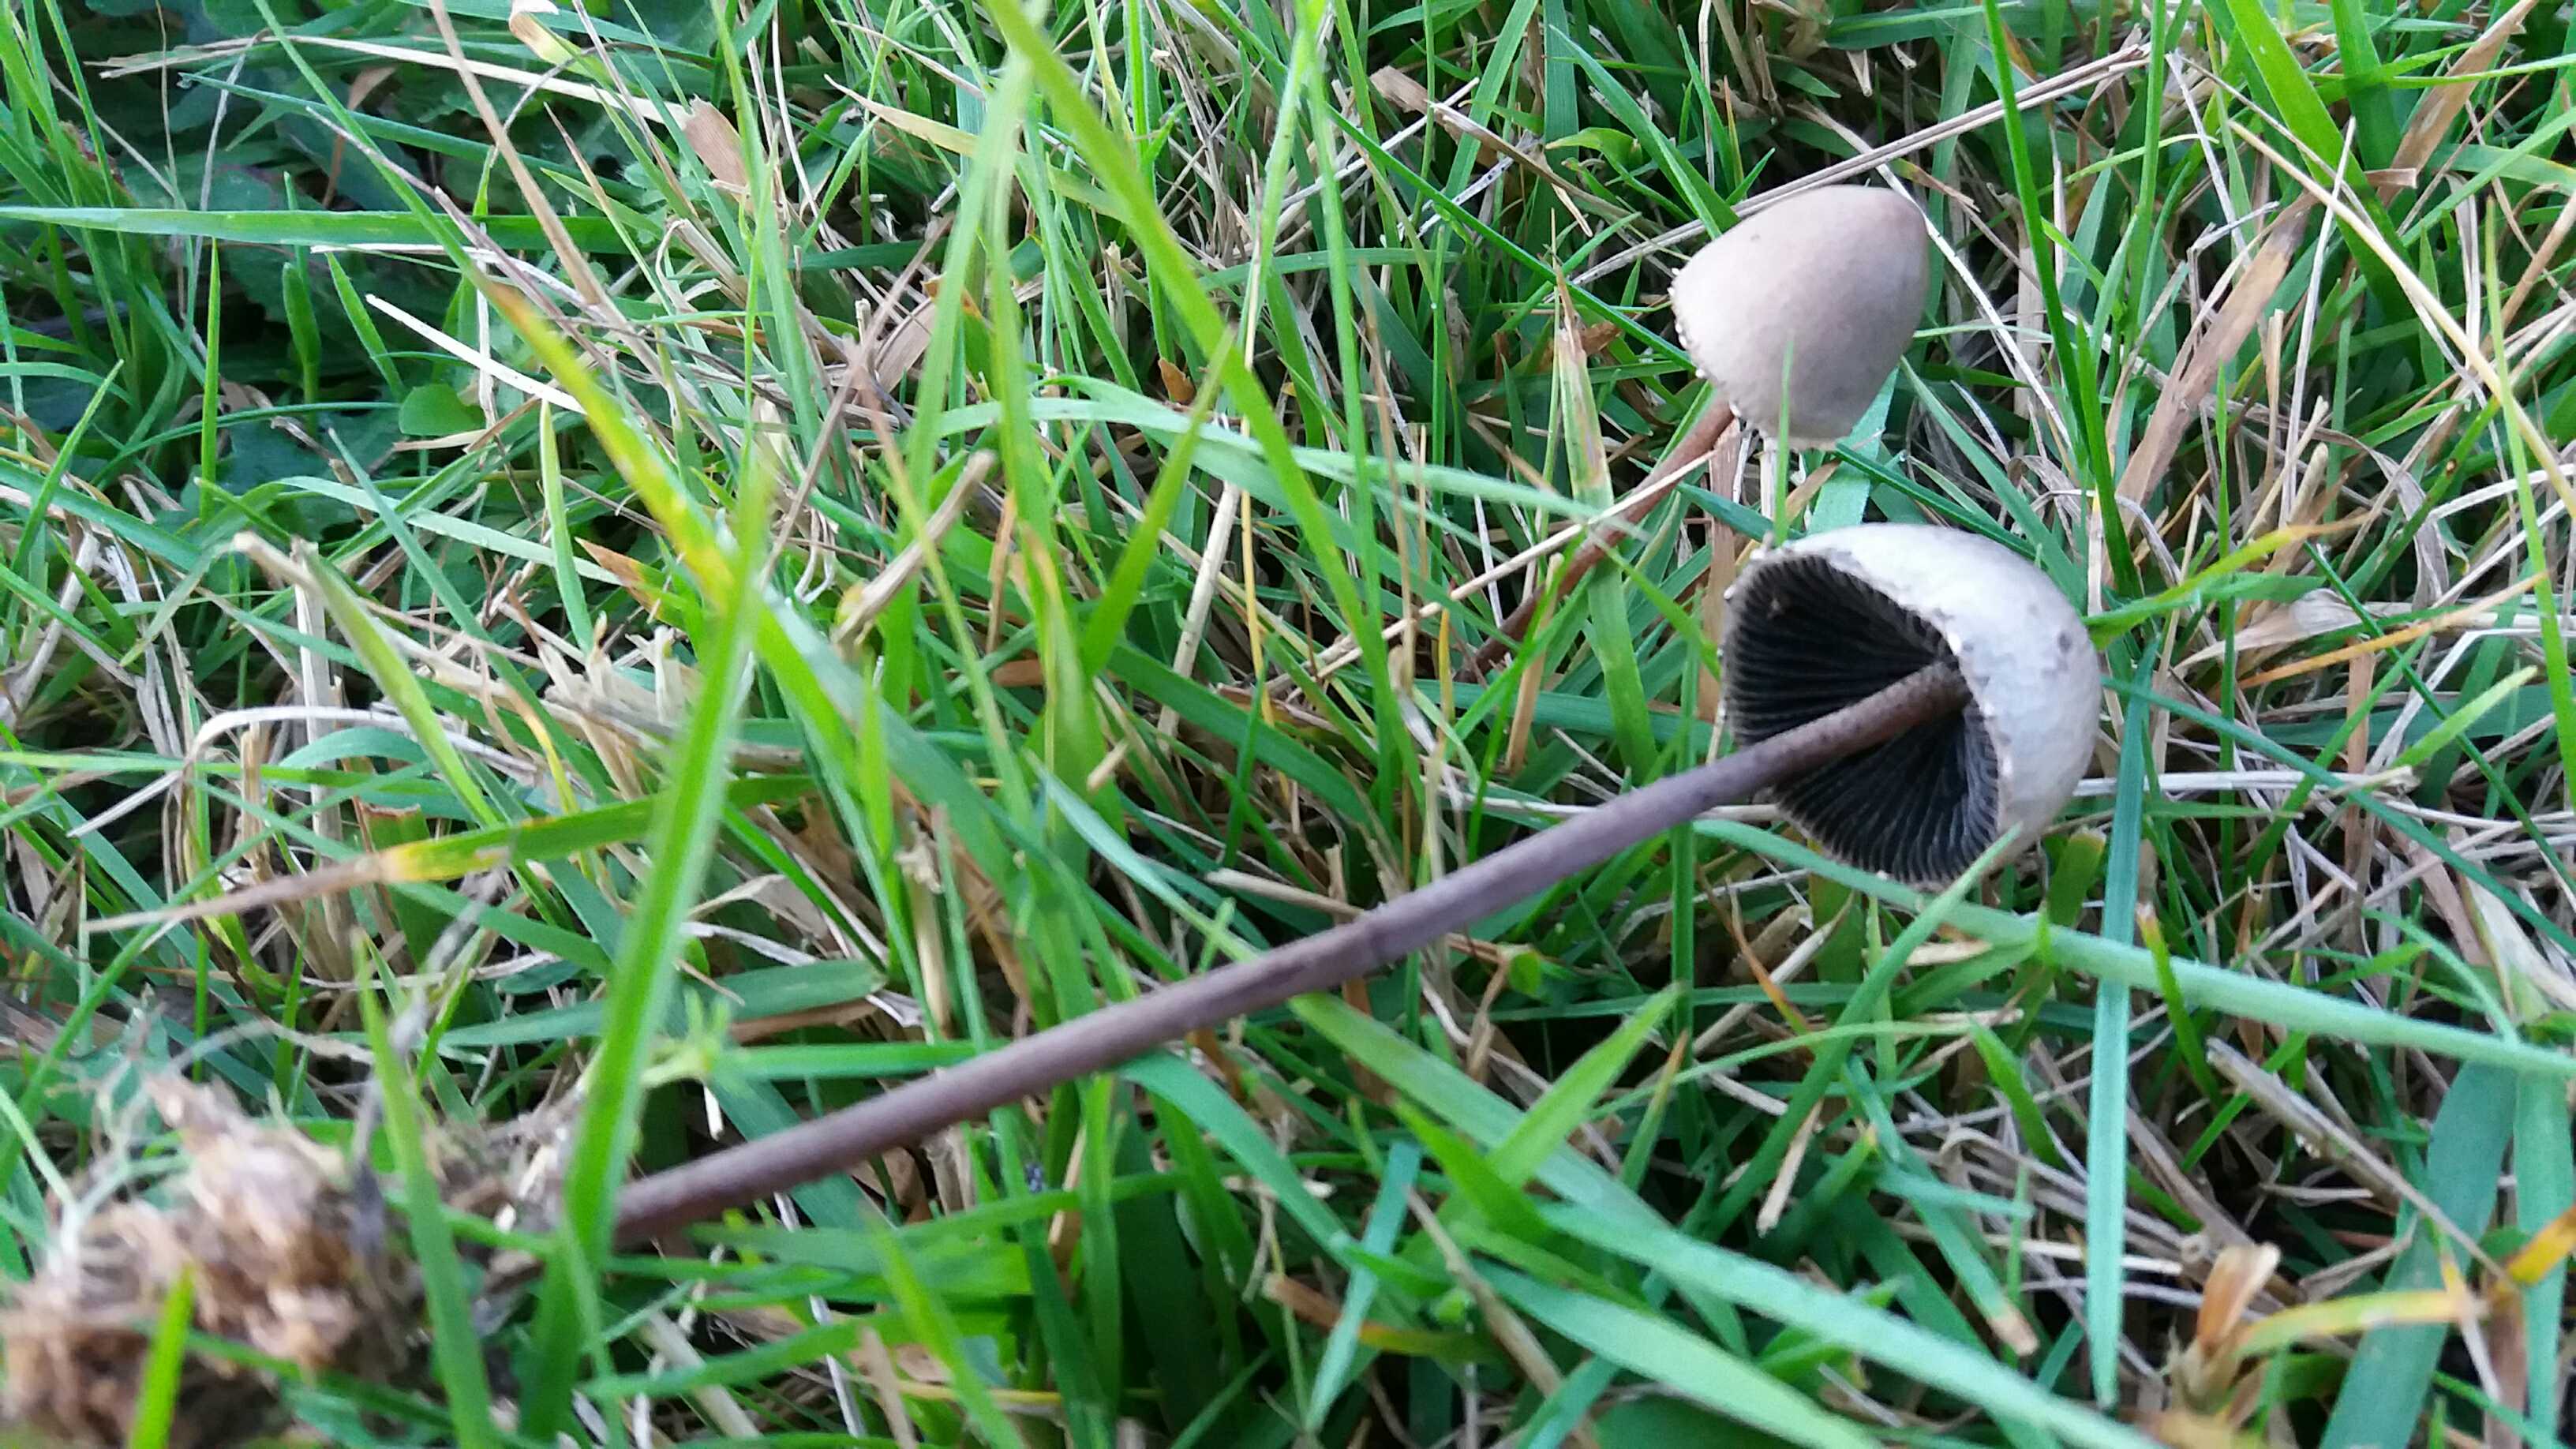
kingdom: Fungi
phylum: Basidiomycota
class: Agaricomycetes
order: Agaricales
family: Bolbitiaceae
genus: Panaeolus
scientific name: Panaeolus papilionaceus
